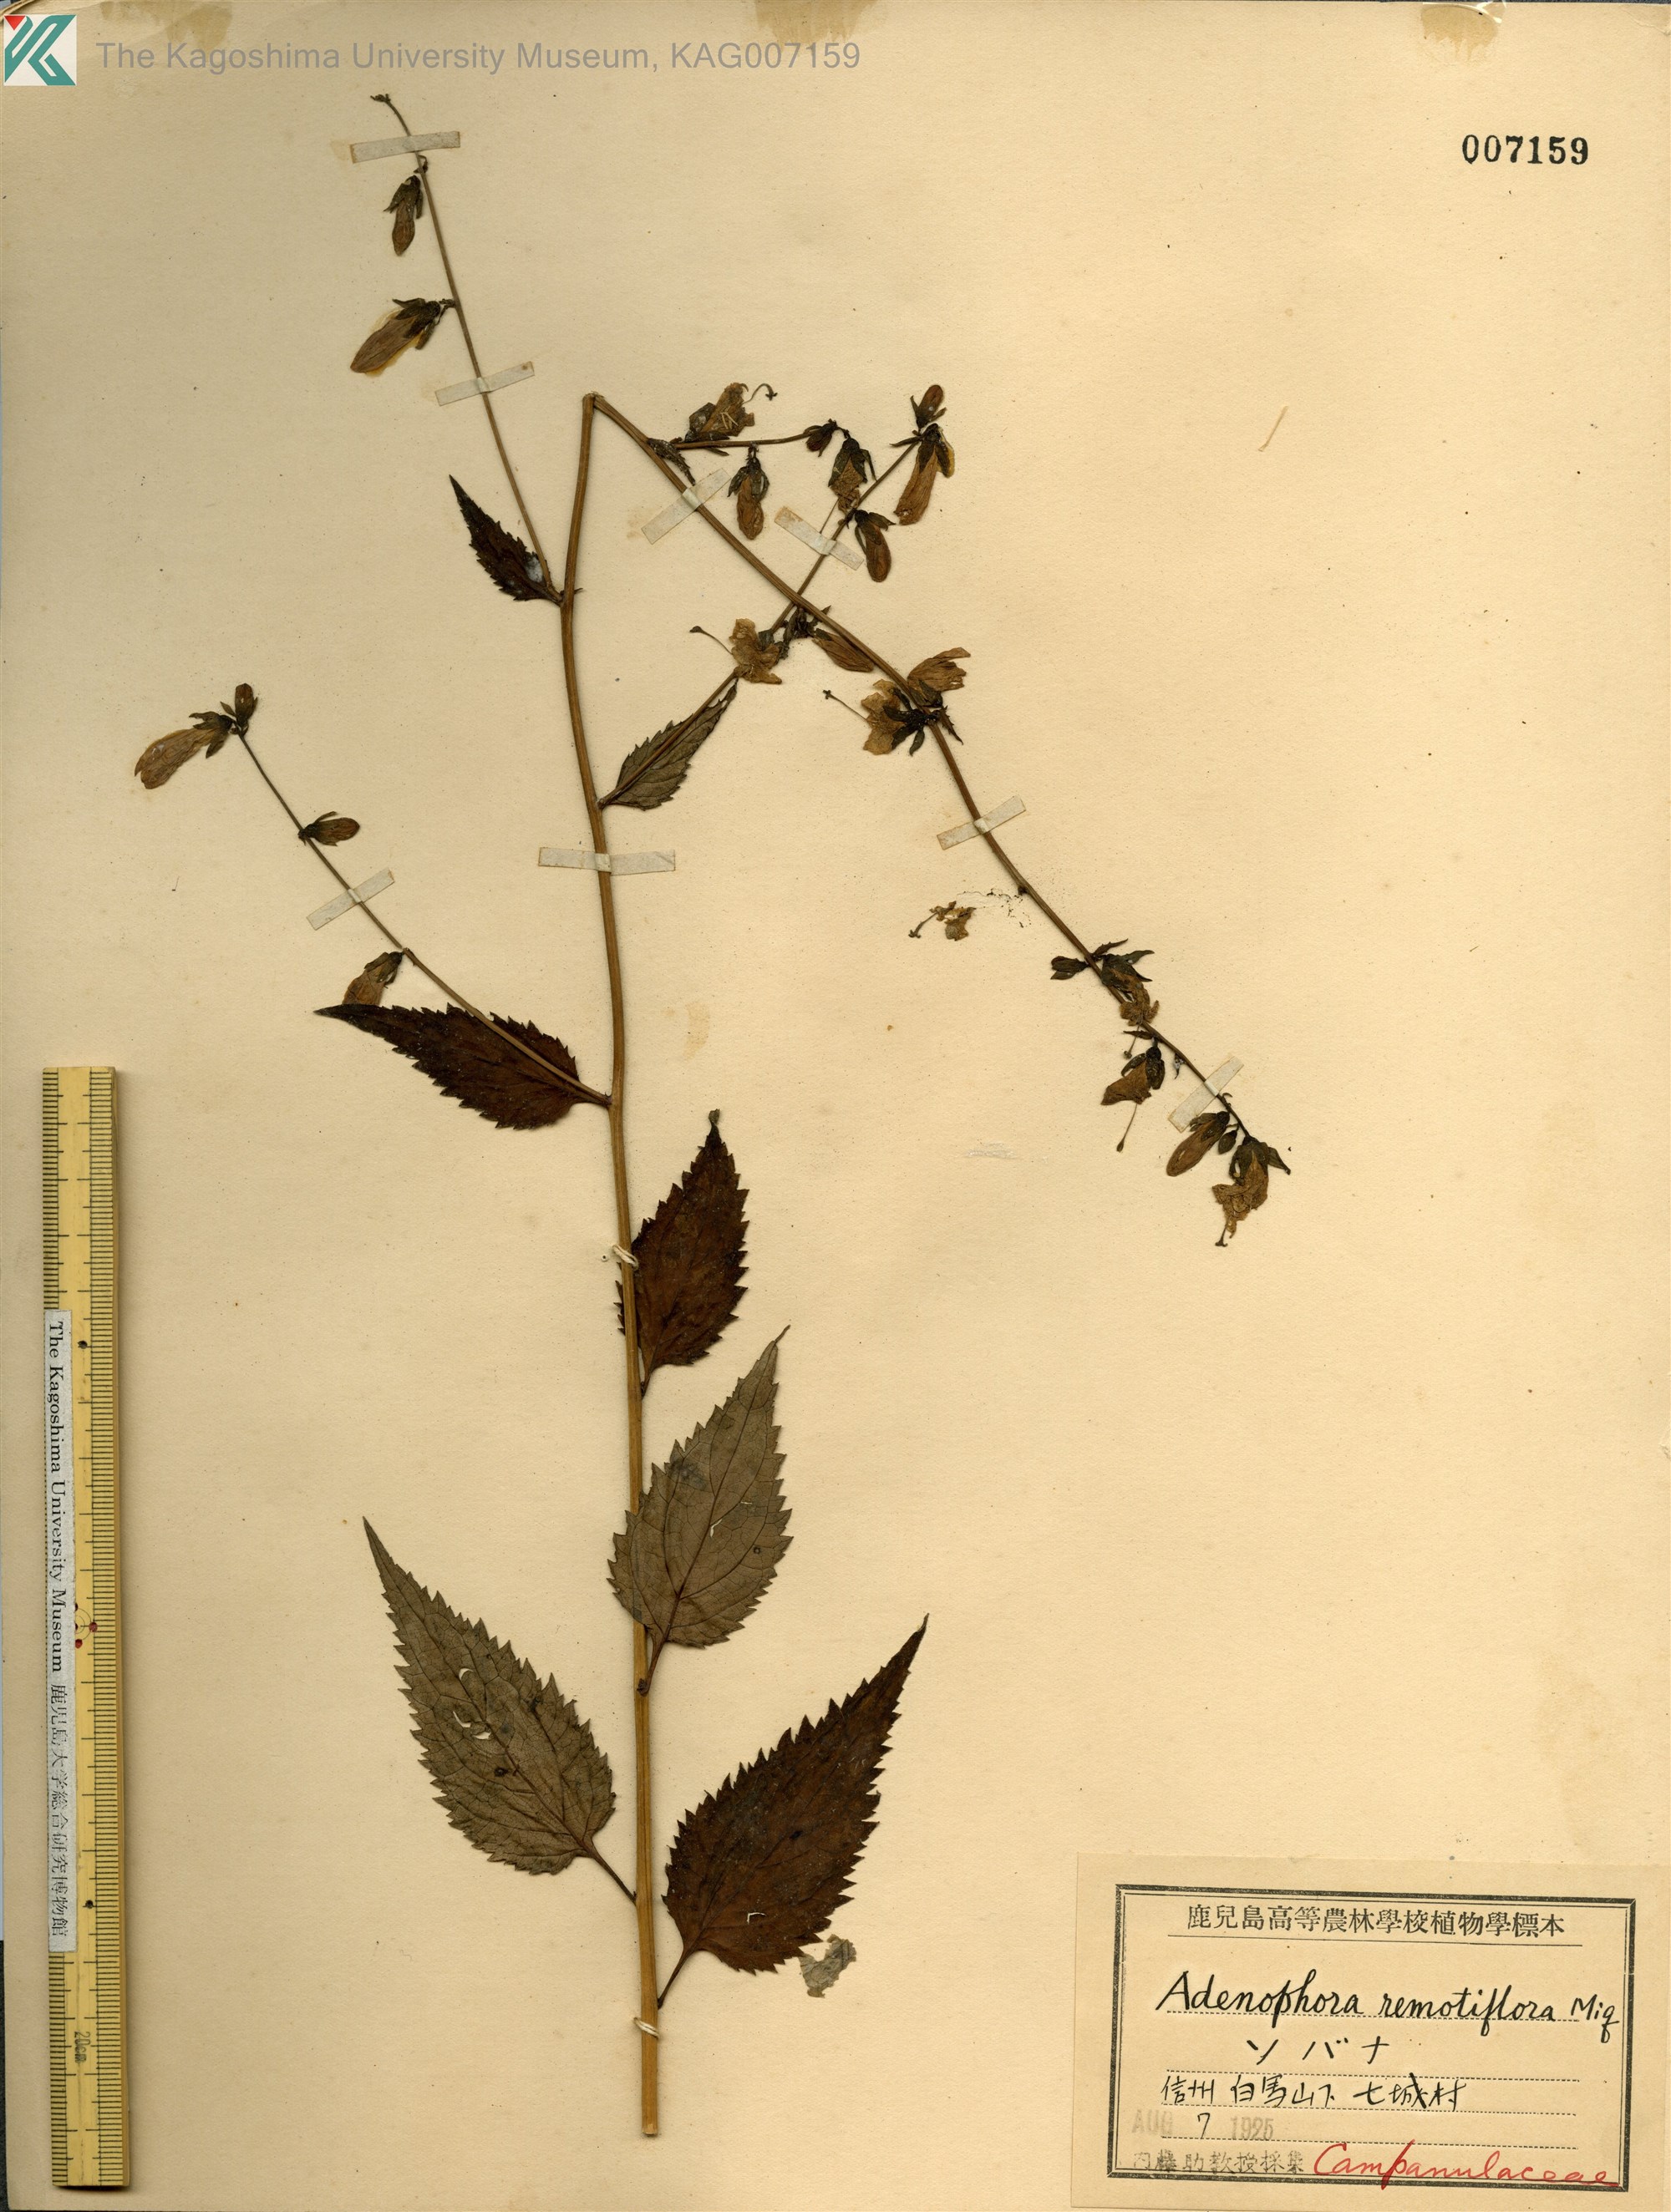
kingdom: Plantae
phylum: Tracheophyta
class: Magnoliopsida
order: Asterales
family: Campanulaceae
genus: Adenophora
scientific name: Adenophora remotiflora
